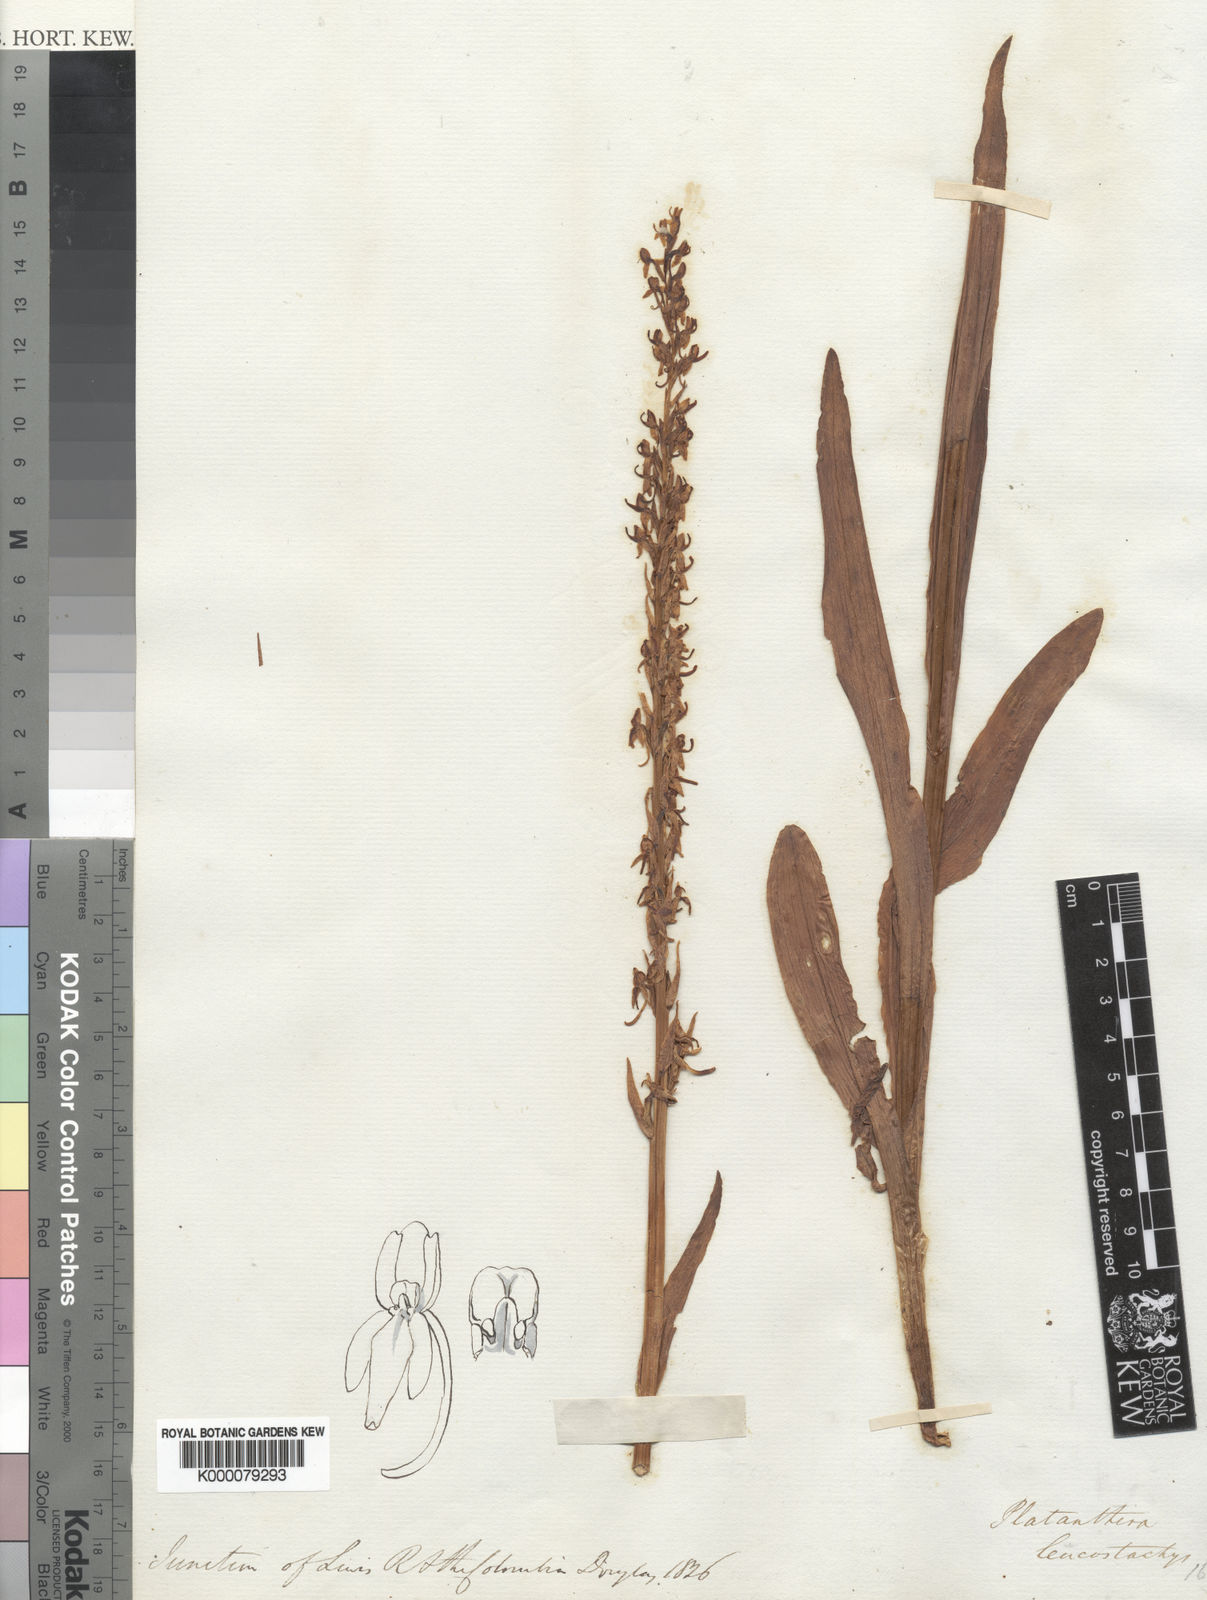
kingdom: Plantae
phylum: Tracheophyta
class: Liliopsida
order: Asparagales
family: Orchidaceae
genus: Platanthera
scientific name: Platanthera dilatata
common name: Bog candles
